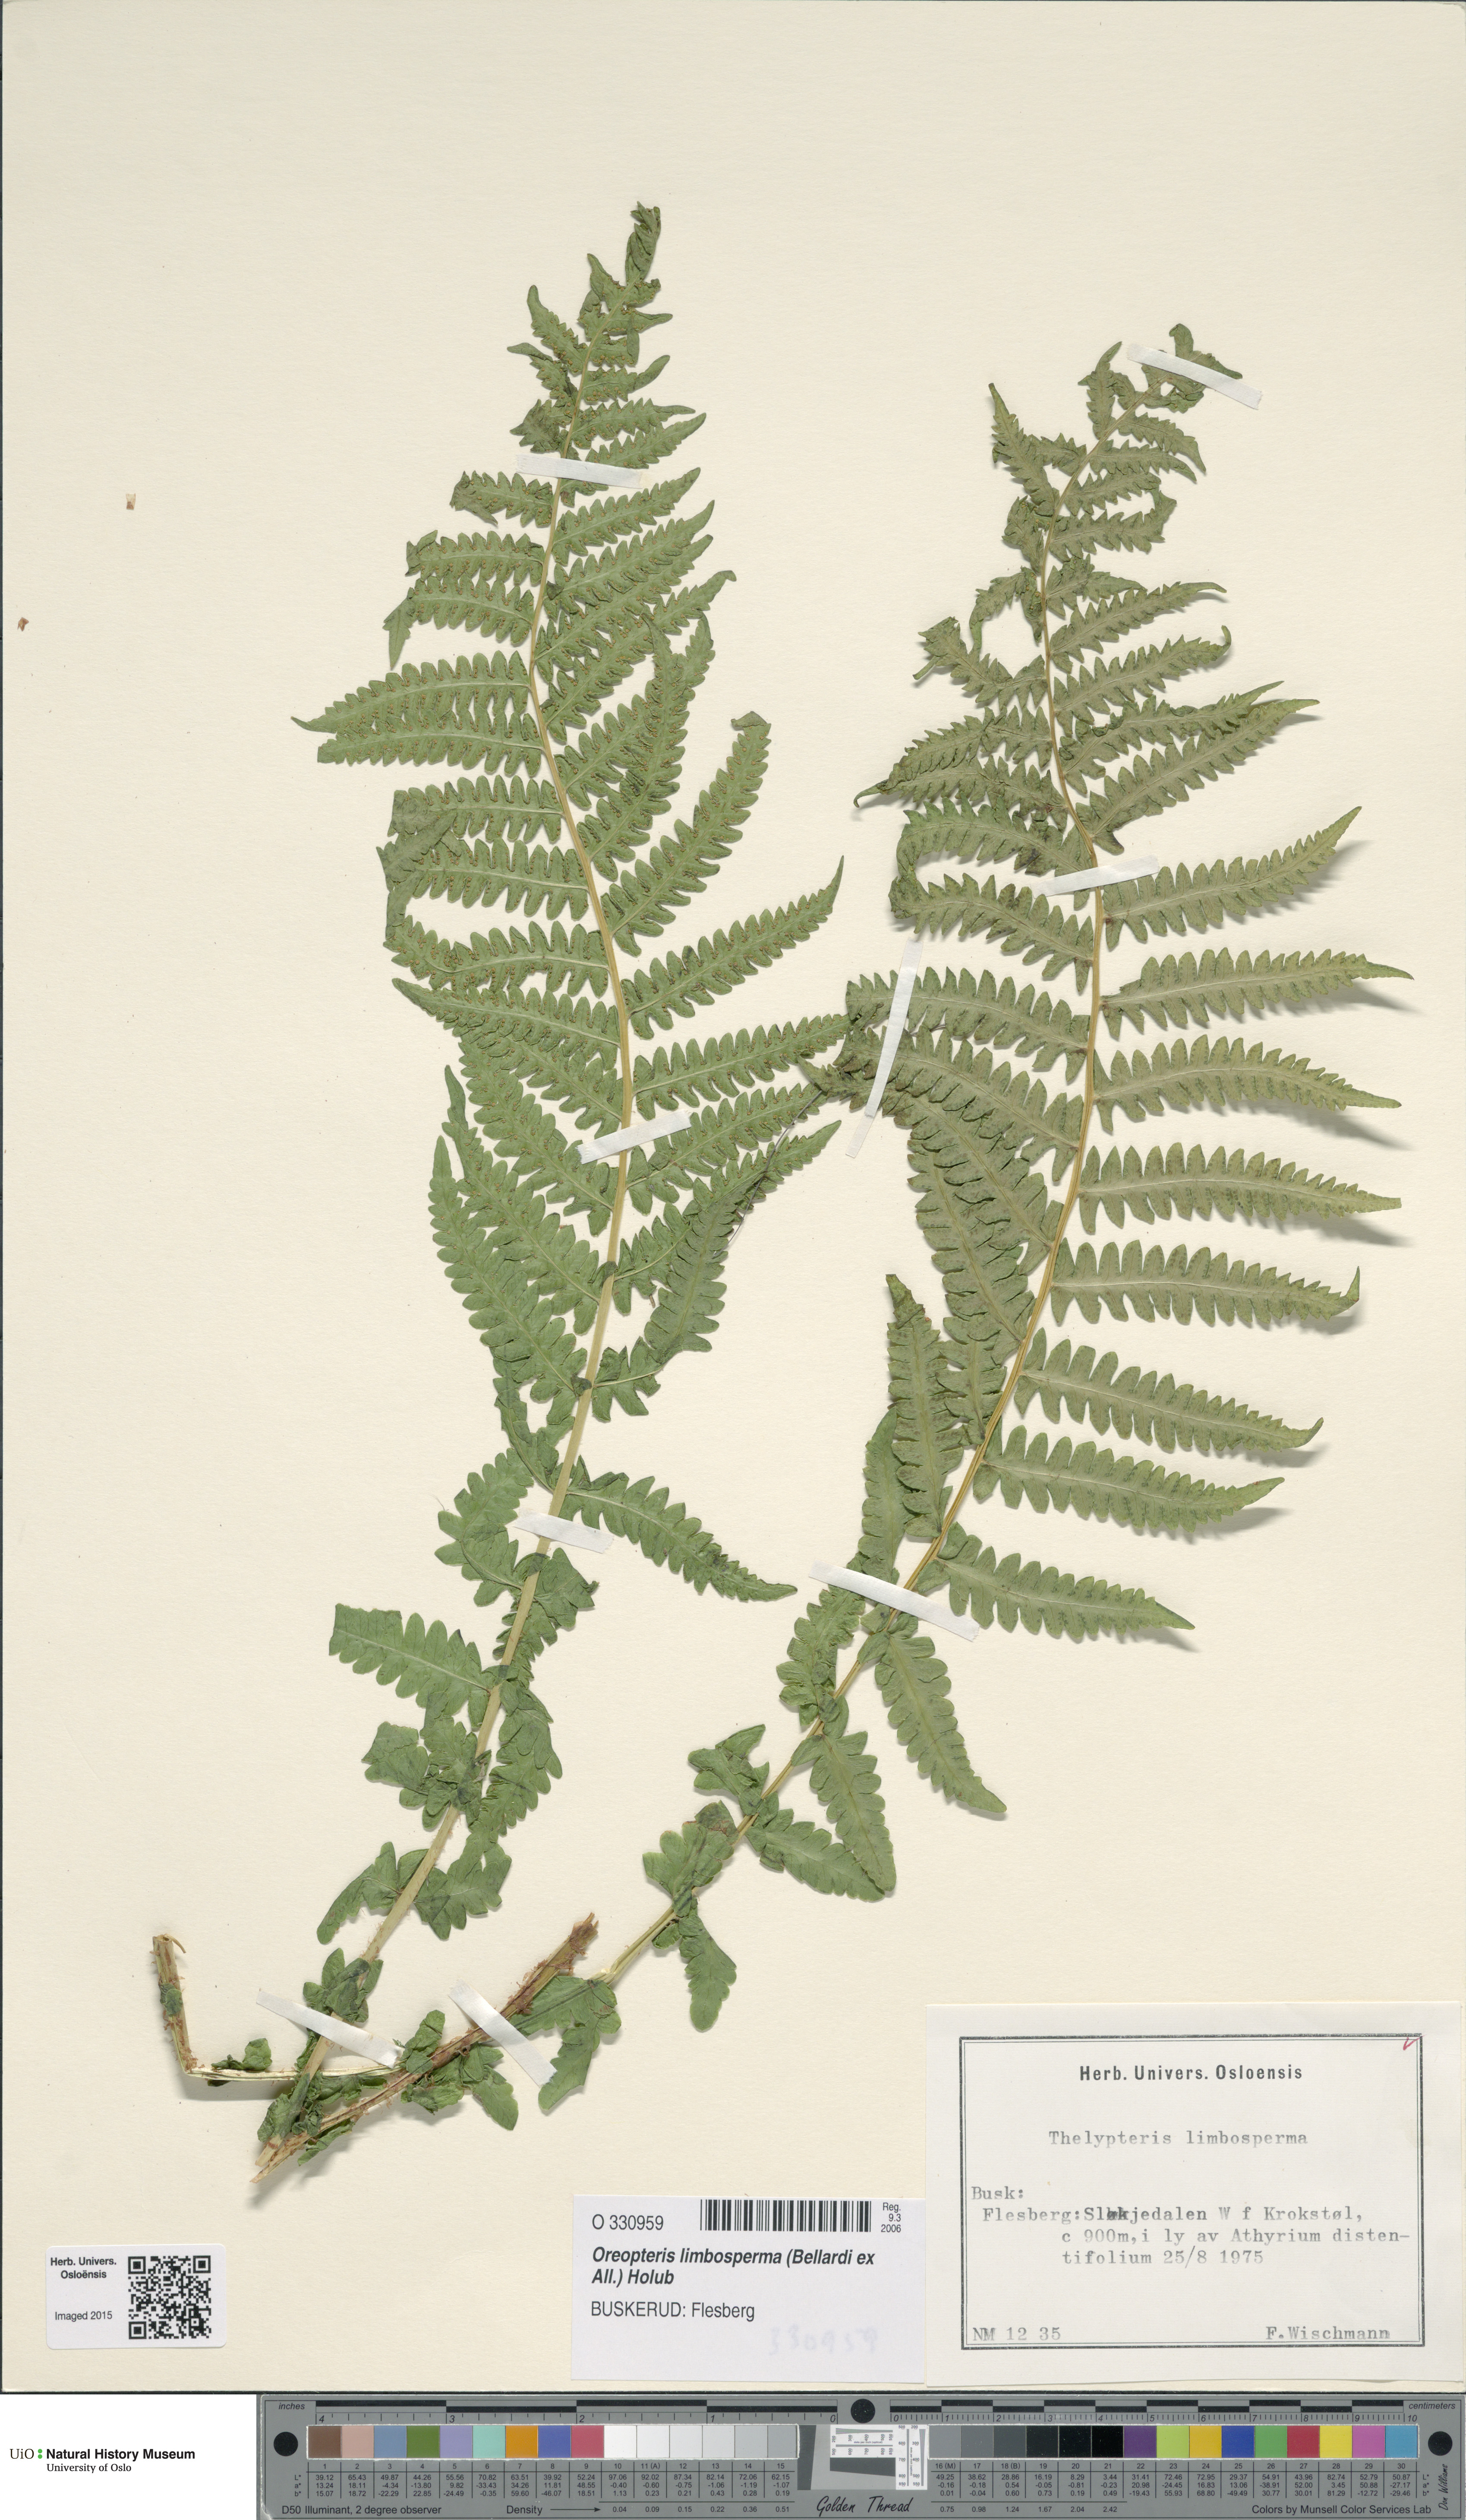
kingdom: Plantae
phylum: Tracheophyta
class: Polypodiopsida
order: Polypodiales
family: Thelypteridaceae
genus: Oreopteris
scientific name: Oreopteris limbosperma
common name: Lemon-scented fern
